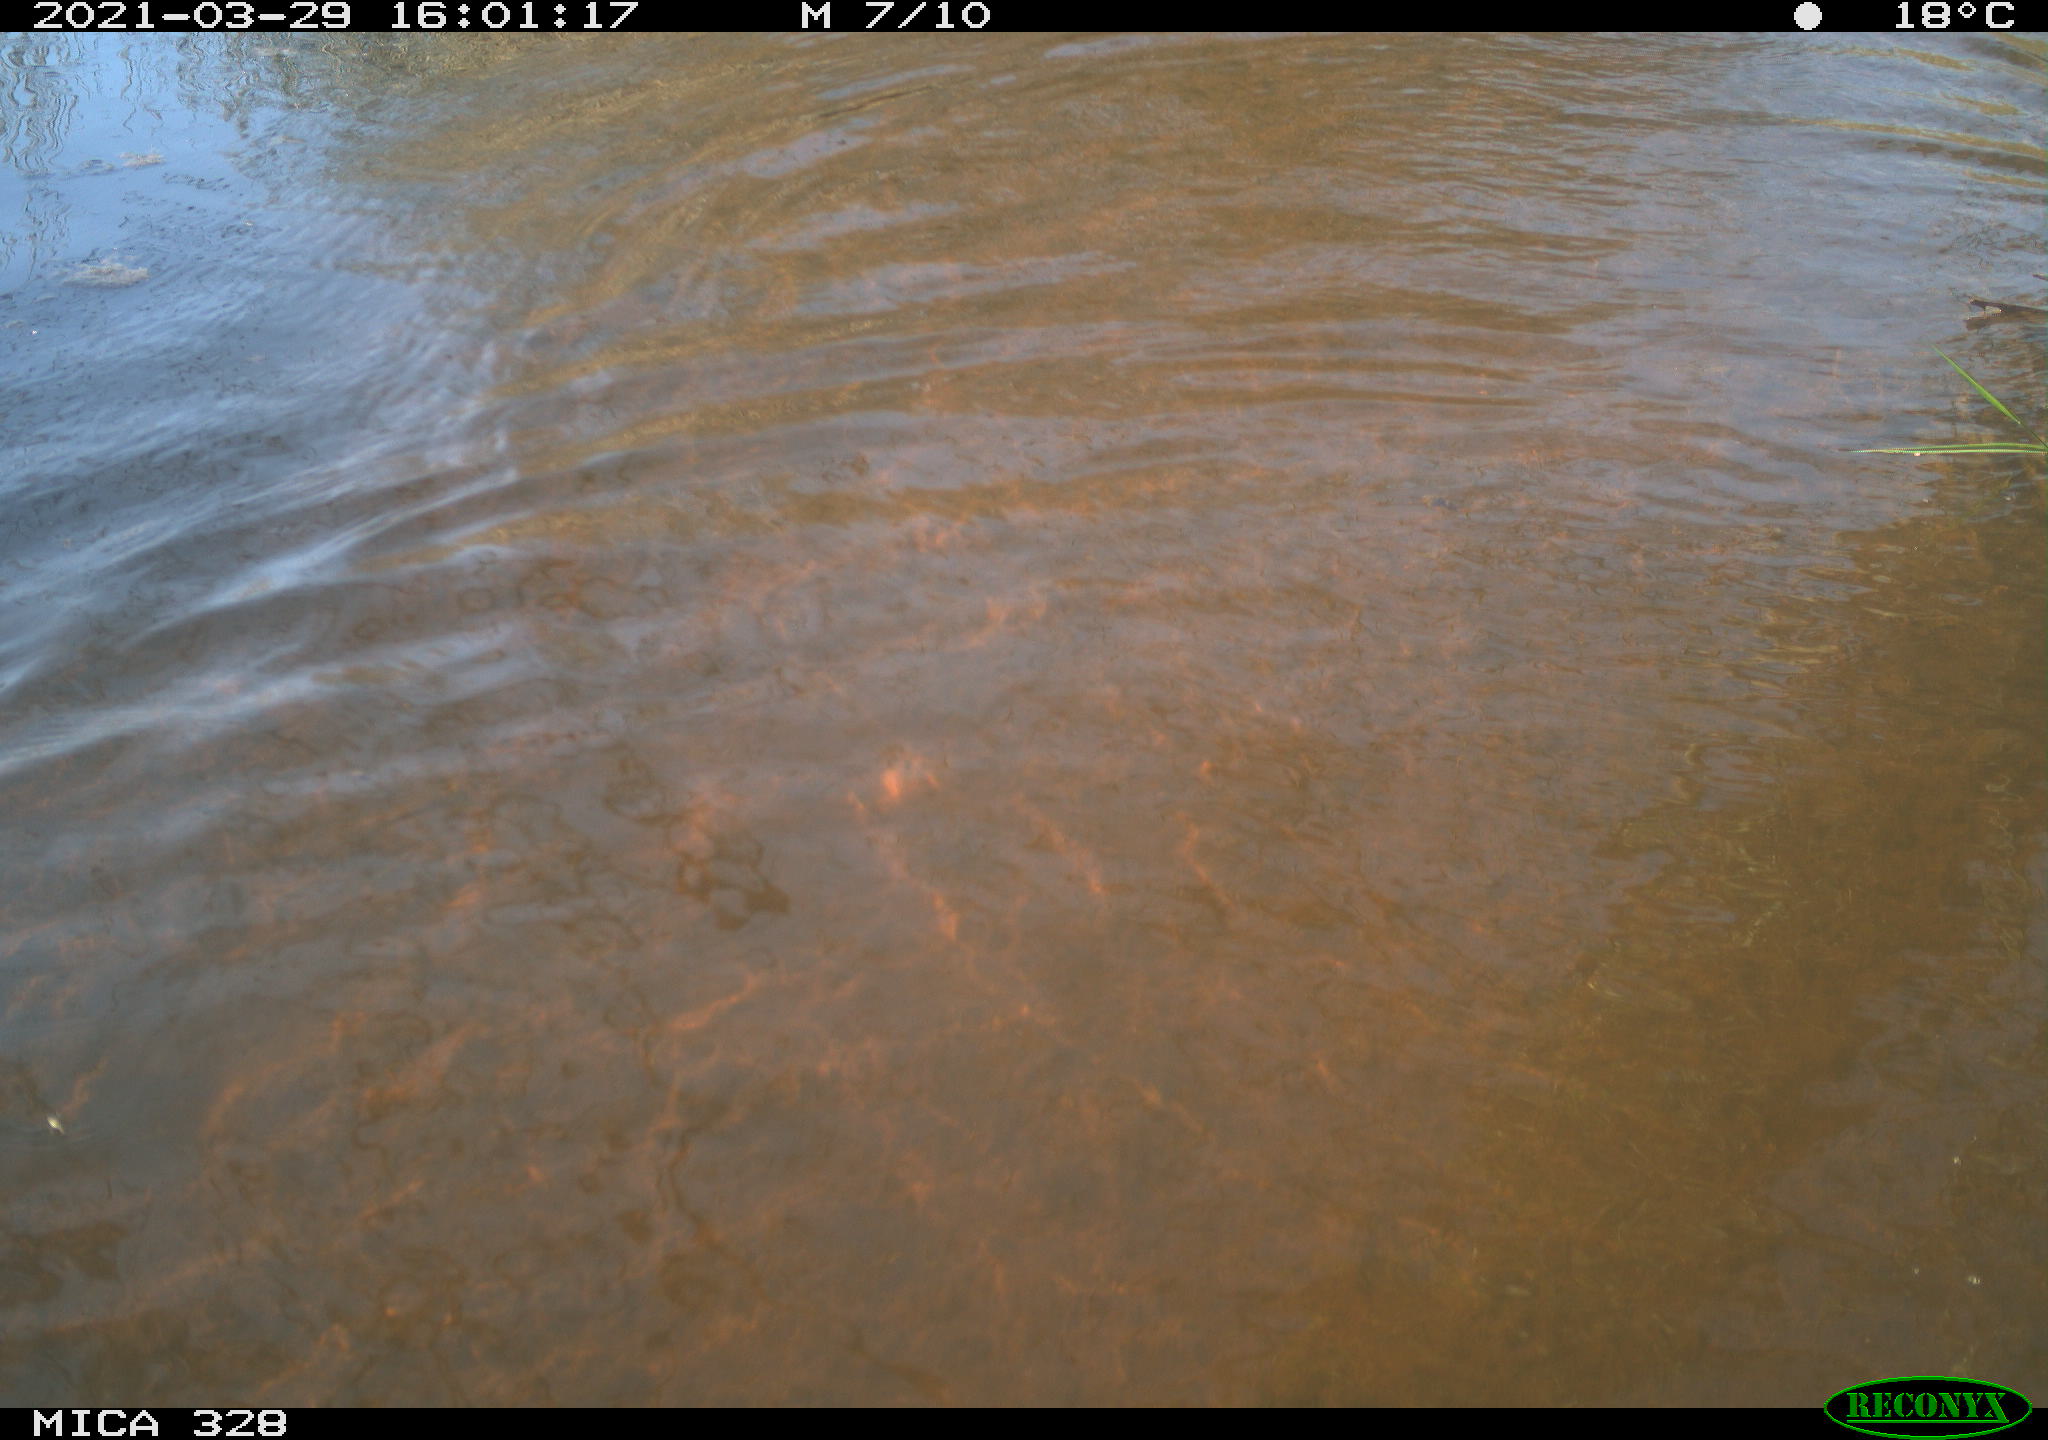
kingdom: Animalia
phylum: Chordata
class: Mammalia
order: Rodentia
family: Cricetidae
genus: Ondatra
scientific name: Ondatra zibethicus
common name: Muskrat
